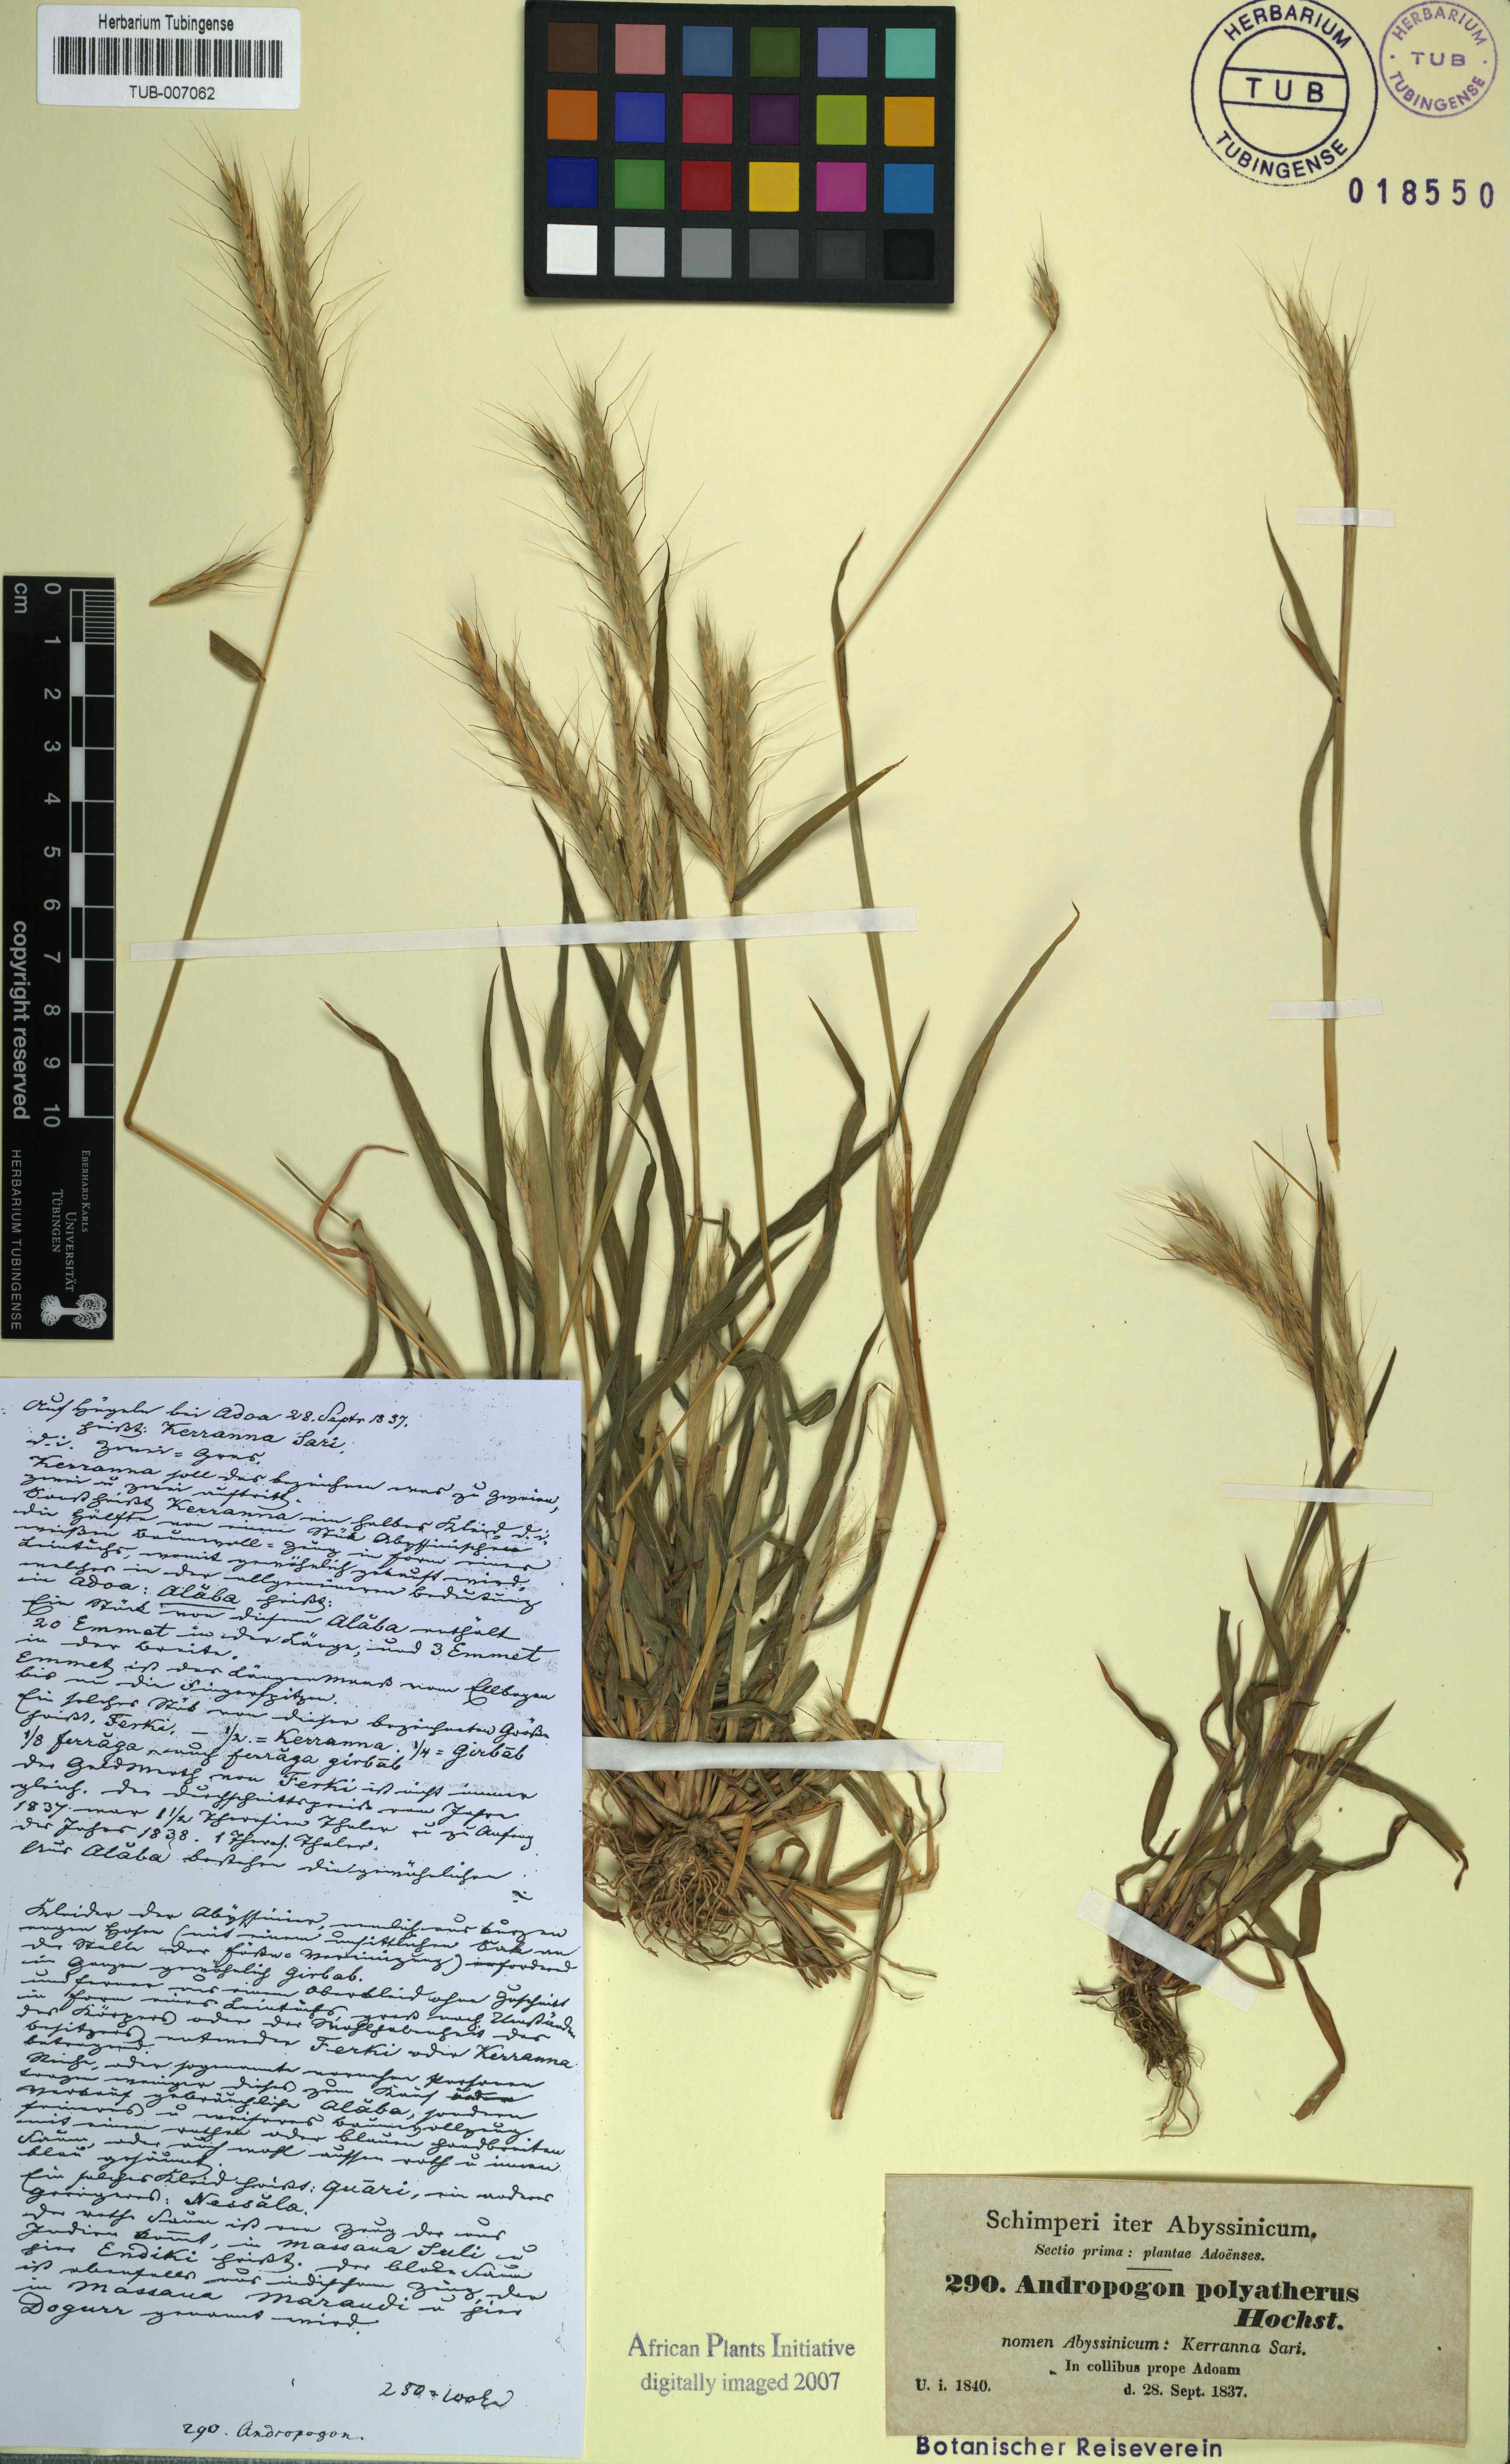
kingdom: Plantae
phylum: Tracheophyta
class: Liliopsida
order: Poales
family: Poaceae
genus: Andropogon
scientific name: Andropogon abyssinicus
